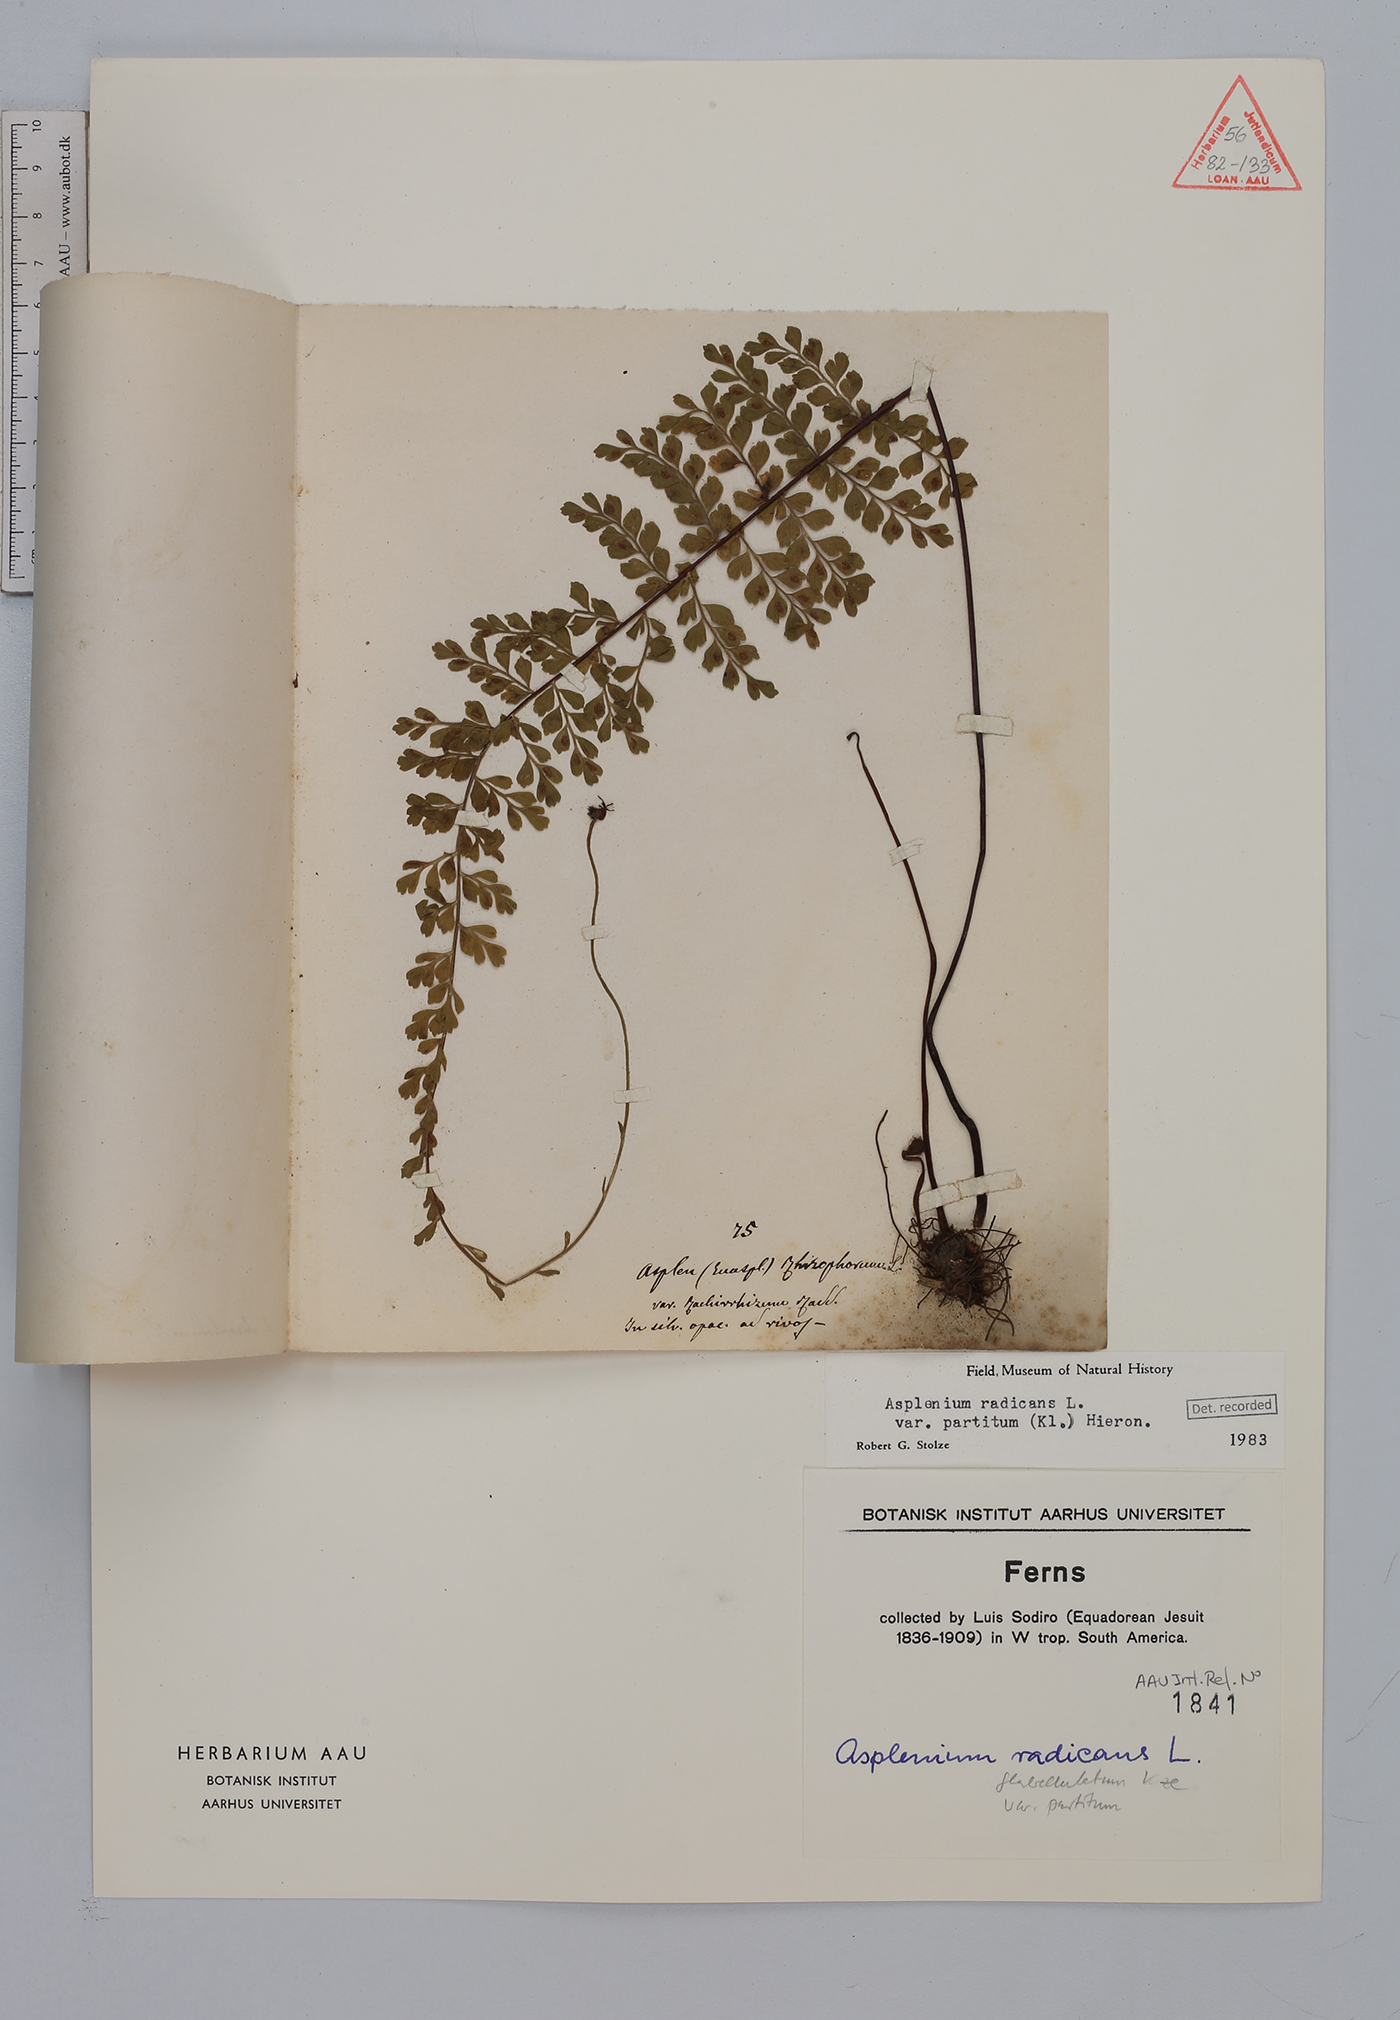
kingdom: Plantae
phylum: Tracheophyta
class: Polypodiopsida
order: Polypodiales
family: Aspleniaceae
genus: Asplenium
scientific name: Asplenium flabellulatum
